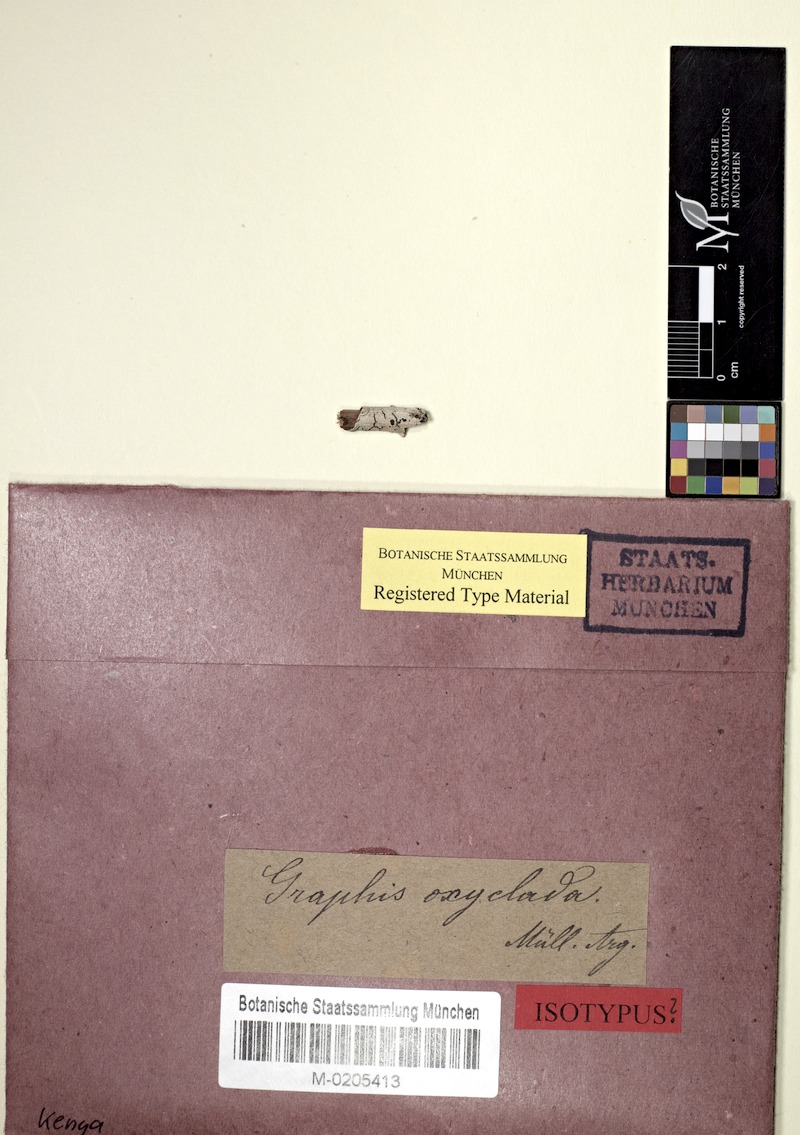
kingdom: Fungi
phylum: Ascomycota
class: Lecanoromycetes
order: Ostropales
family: Graphidaceae
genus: Graphis
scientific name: Graphis oxyclada
